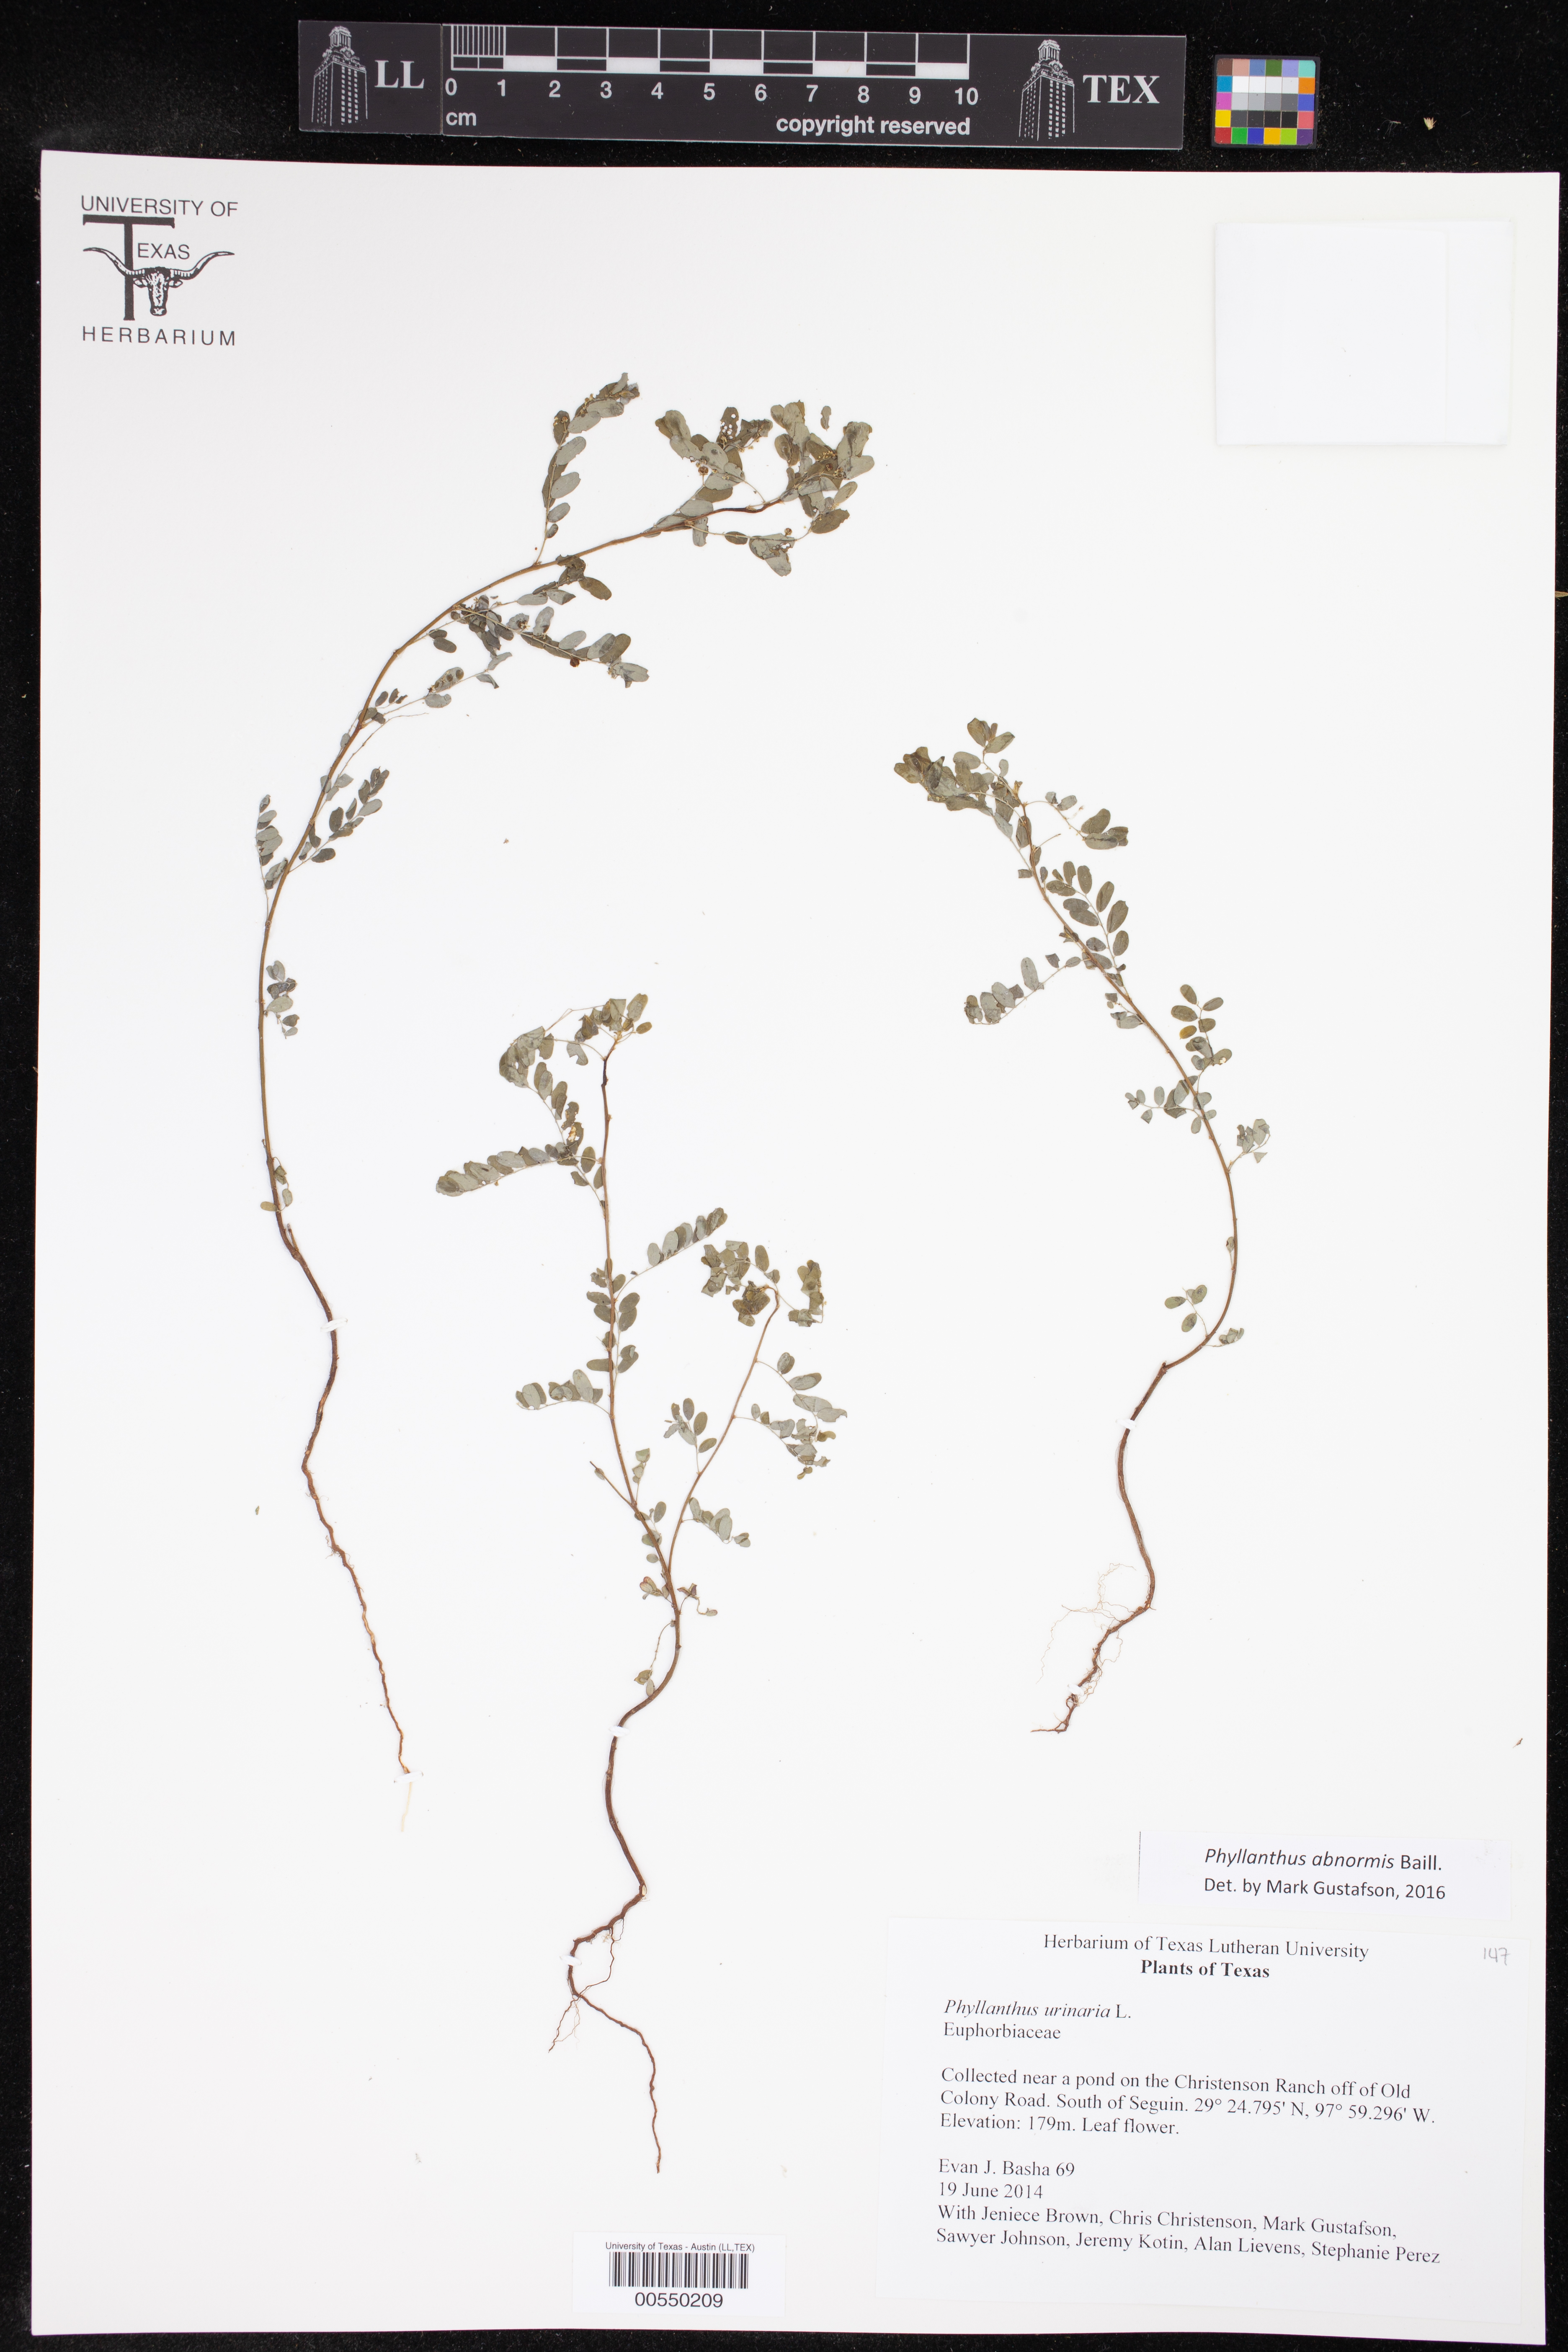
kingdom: Plantae
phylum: Tracheophyta
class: Magnoliopsida
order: Malpighiales
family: Phyllanthaceae
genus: Phyllanthus
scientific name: Phyllanthus abnormis
